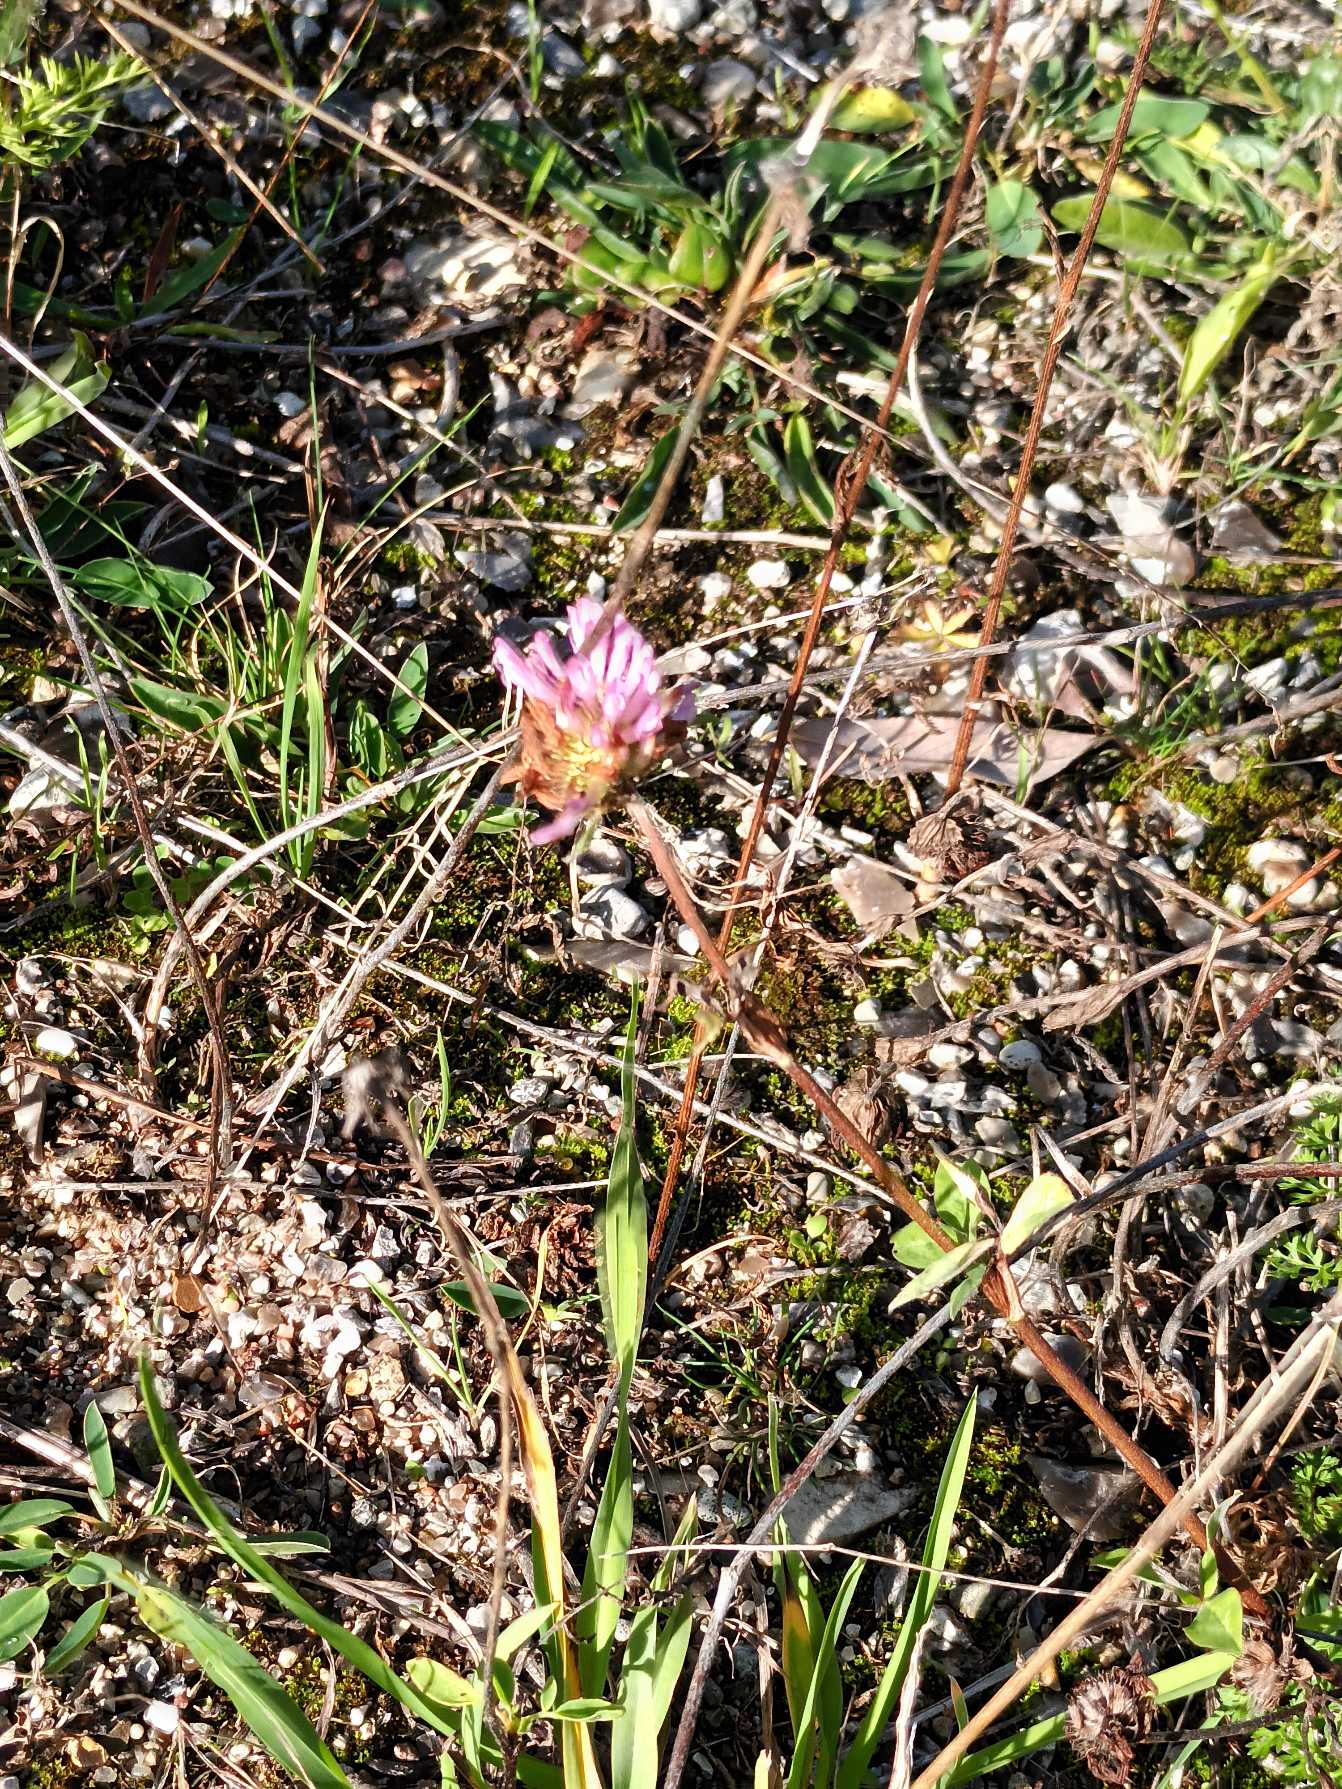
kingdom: Plantae
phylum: Tracheophyta
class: Magnoliopsida
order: Fabales
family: Fabaceae
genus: Trifolium
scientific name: Trifolium pratense
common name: Rød-kløver
